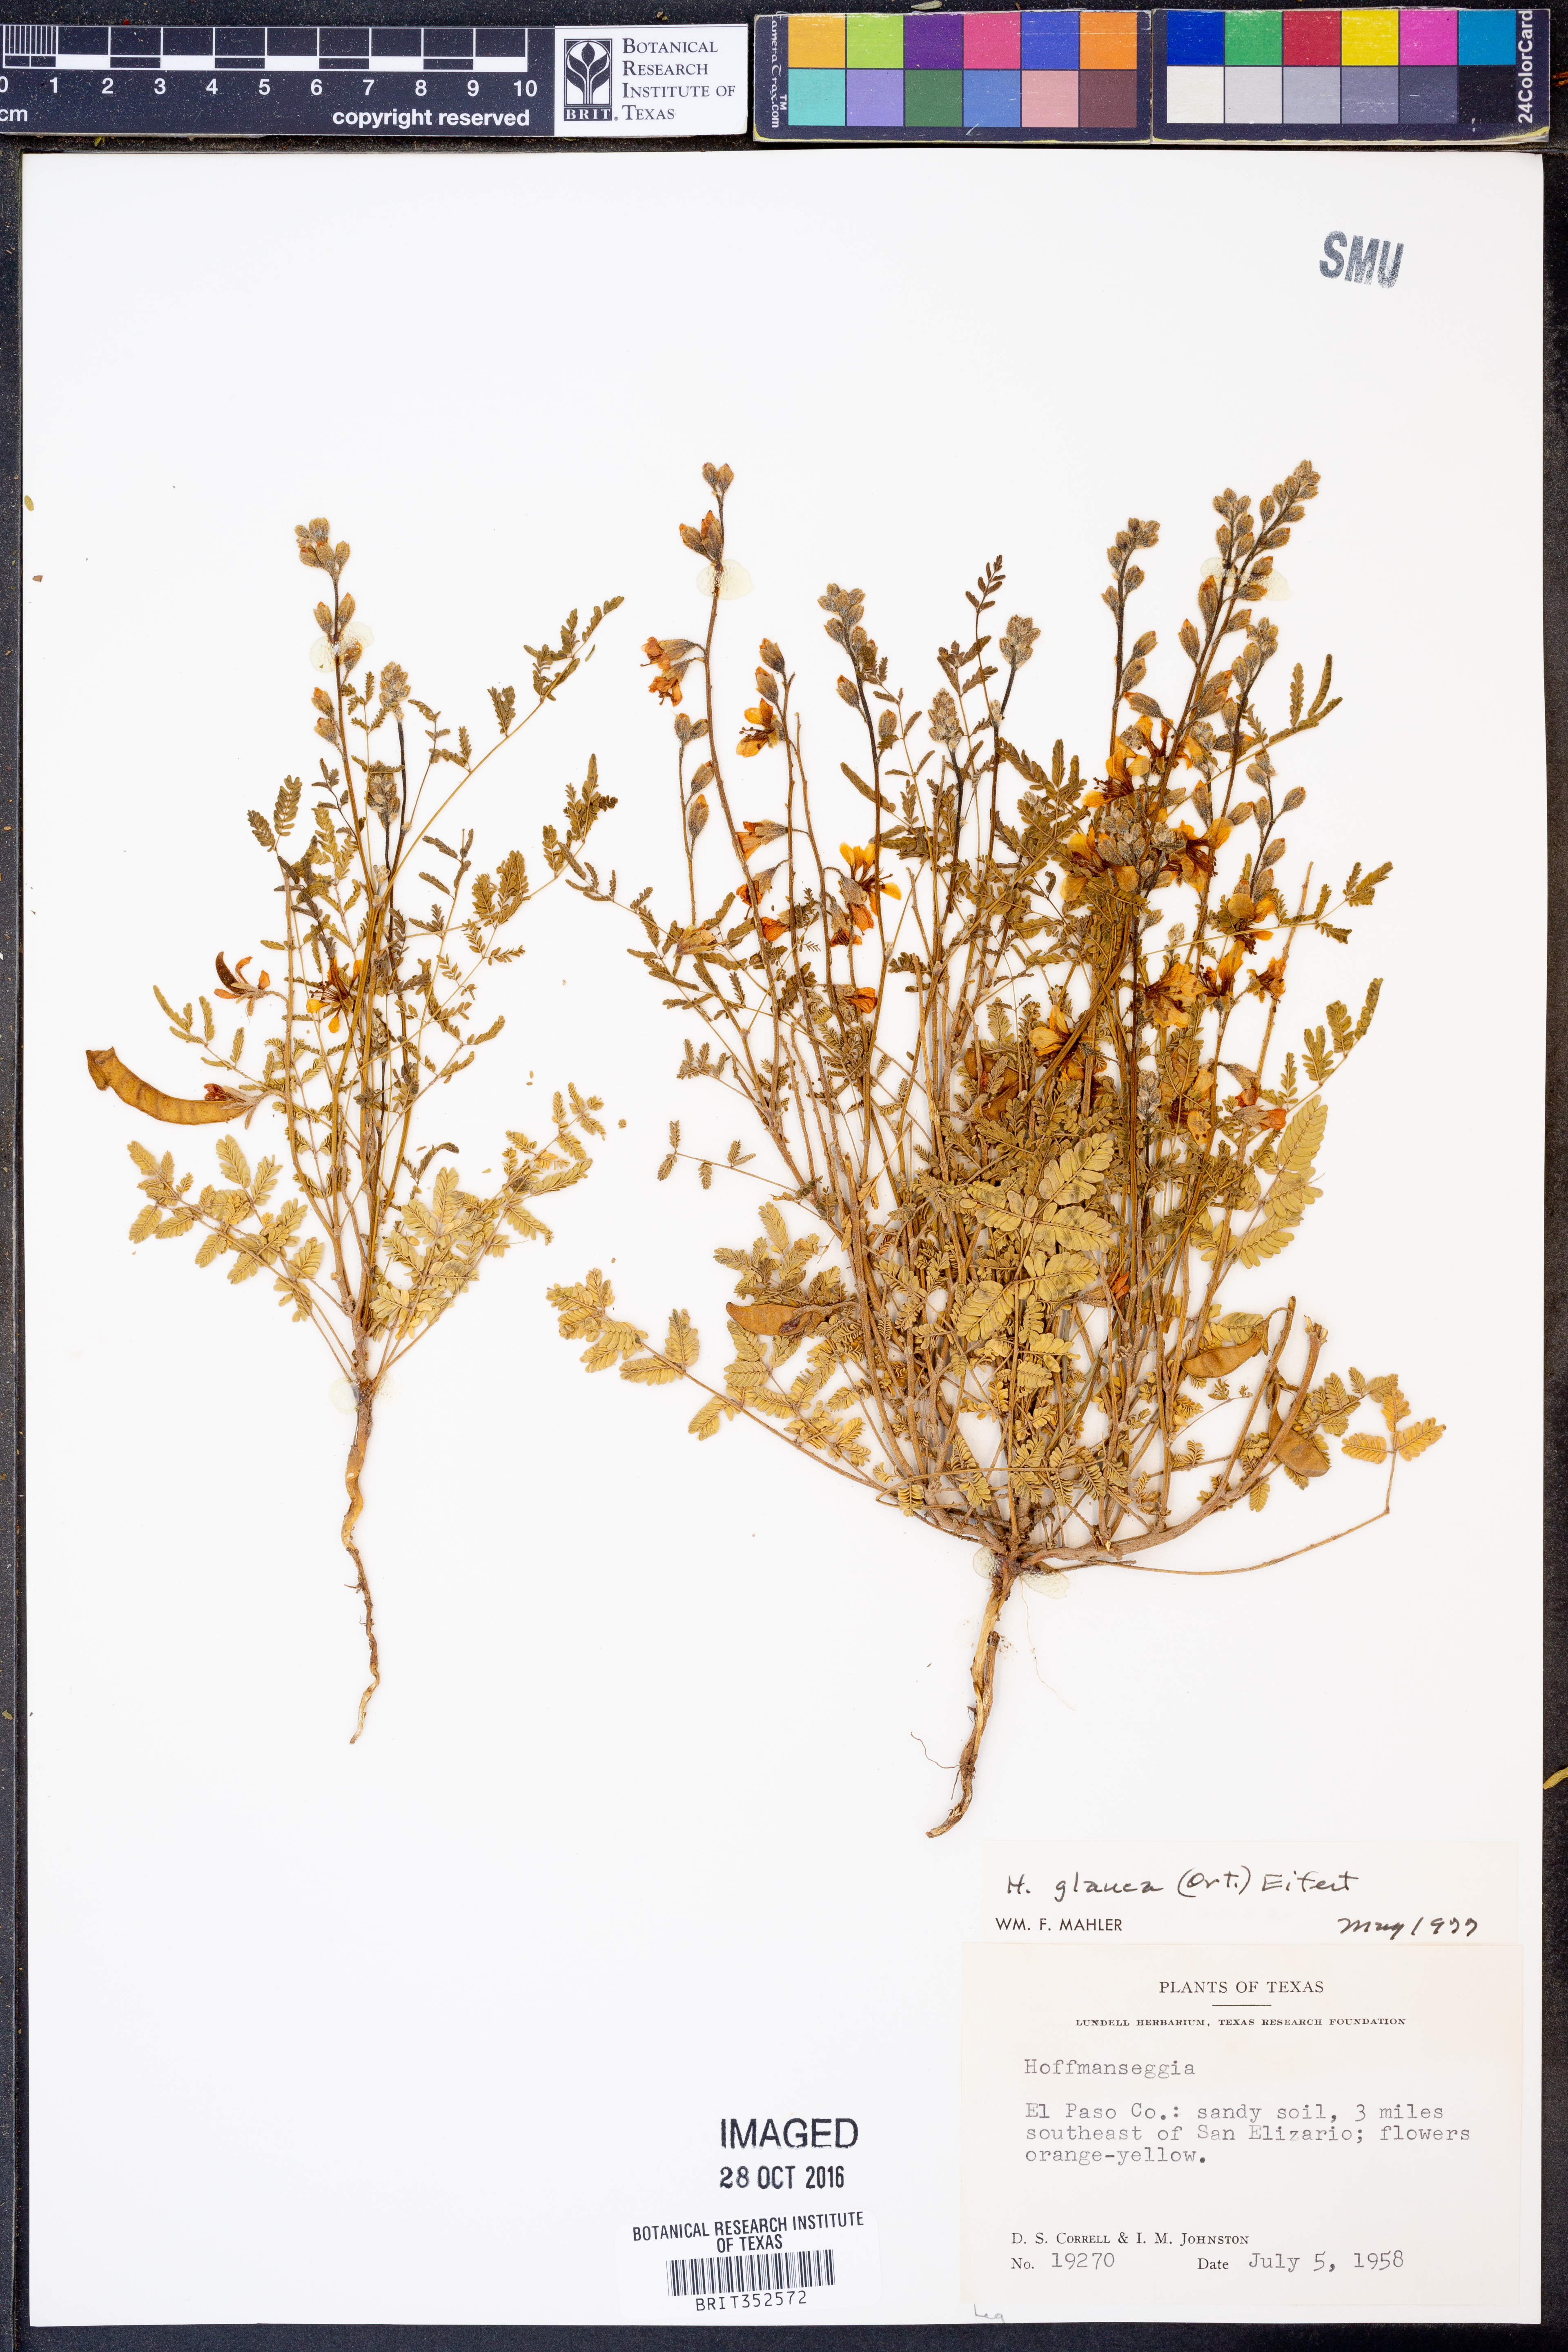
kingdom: Plantae
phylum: Tracheophyta
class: Magnoliopsida
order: Fabales
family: Fabaceae
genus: Hoffmannseggia
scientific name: Hoffmannseggia glauca
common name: Pignut
